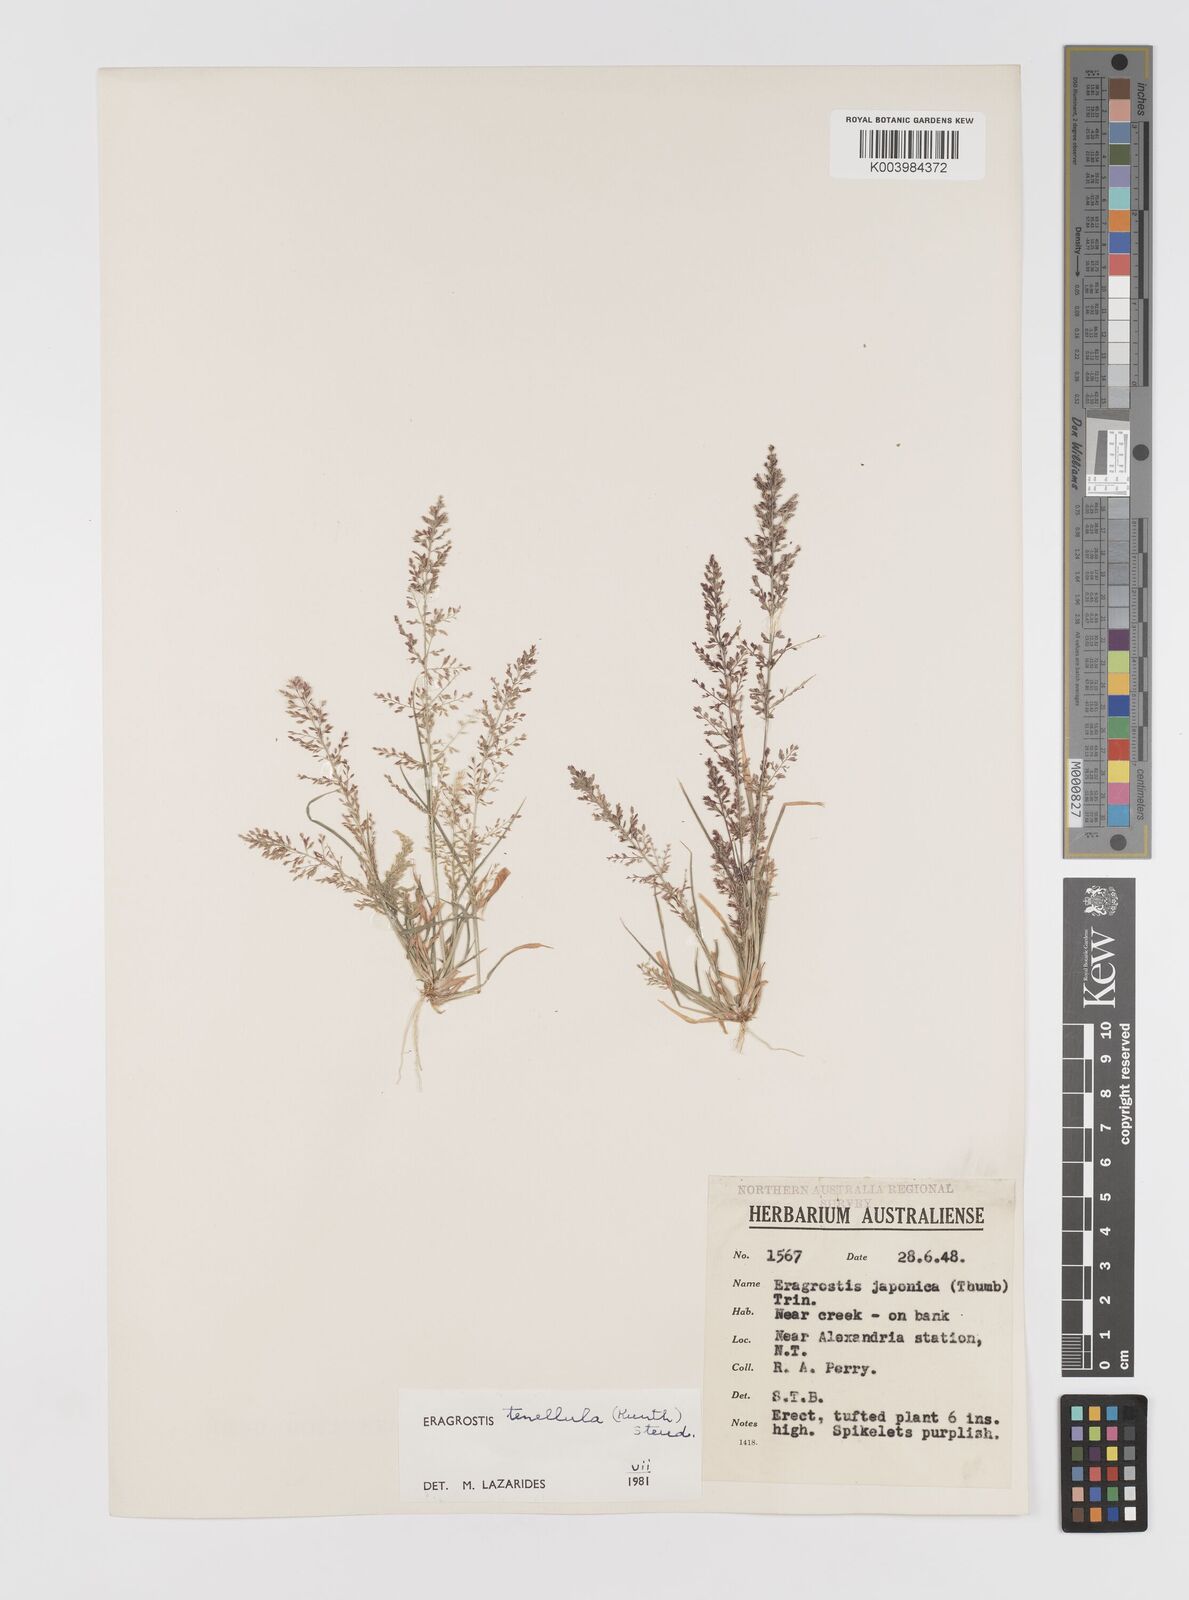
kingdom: Plantae
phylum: Tracheophyta
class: Liliopsida
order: Poales
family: Poaceae
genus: Eragrostis
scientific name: Eragrostis tenellula
